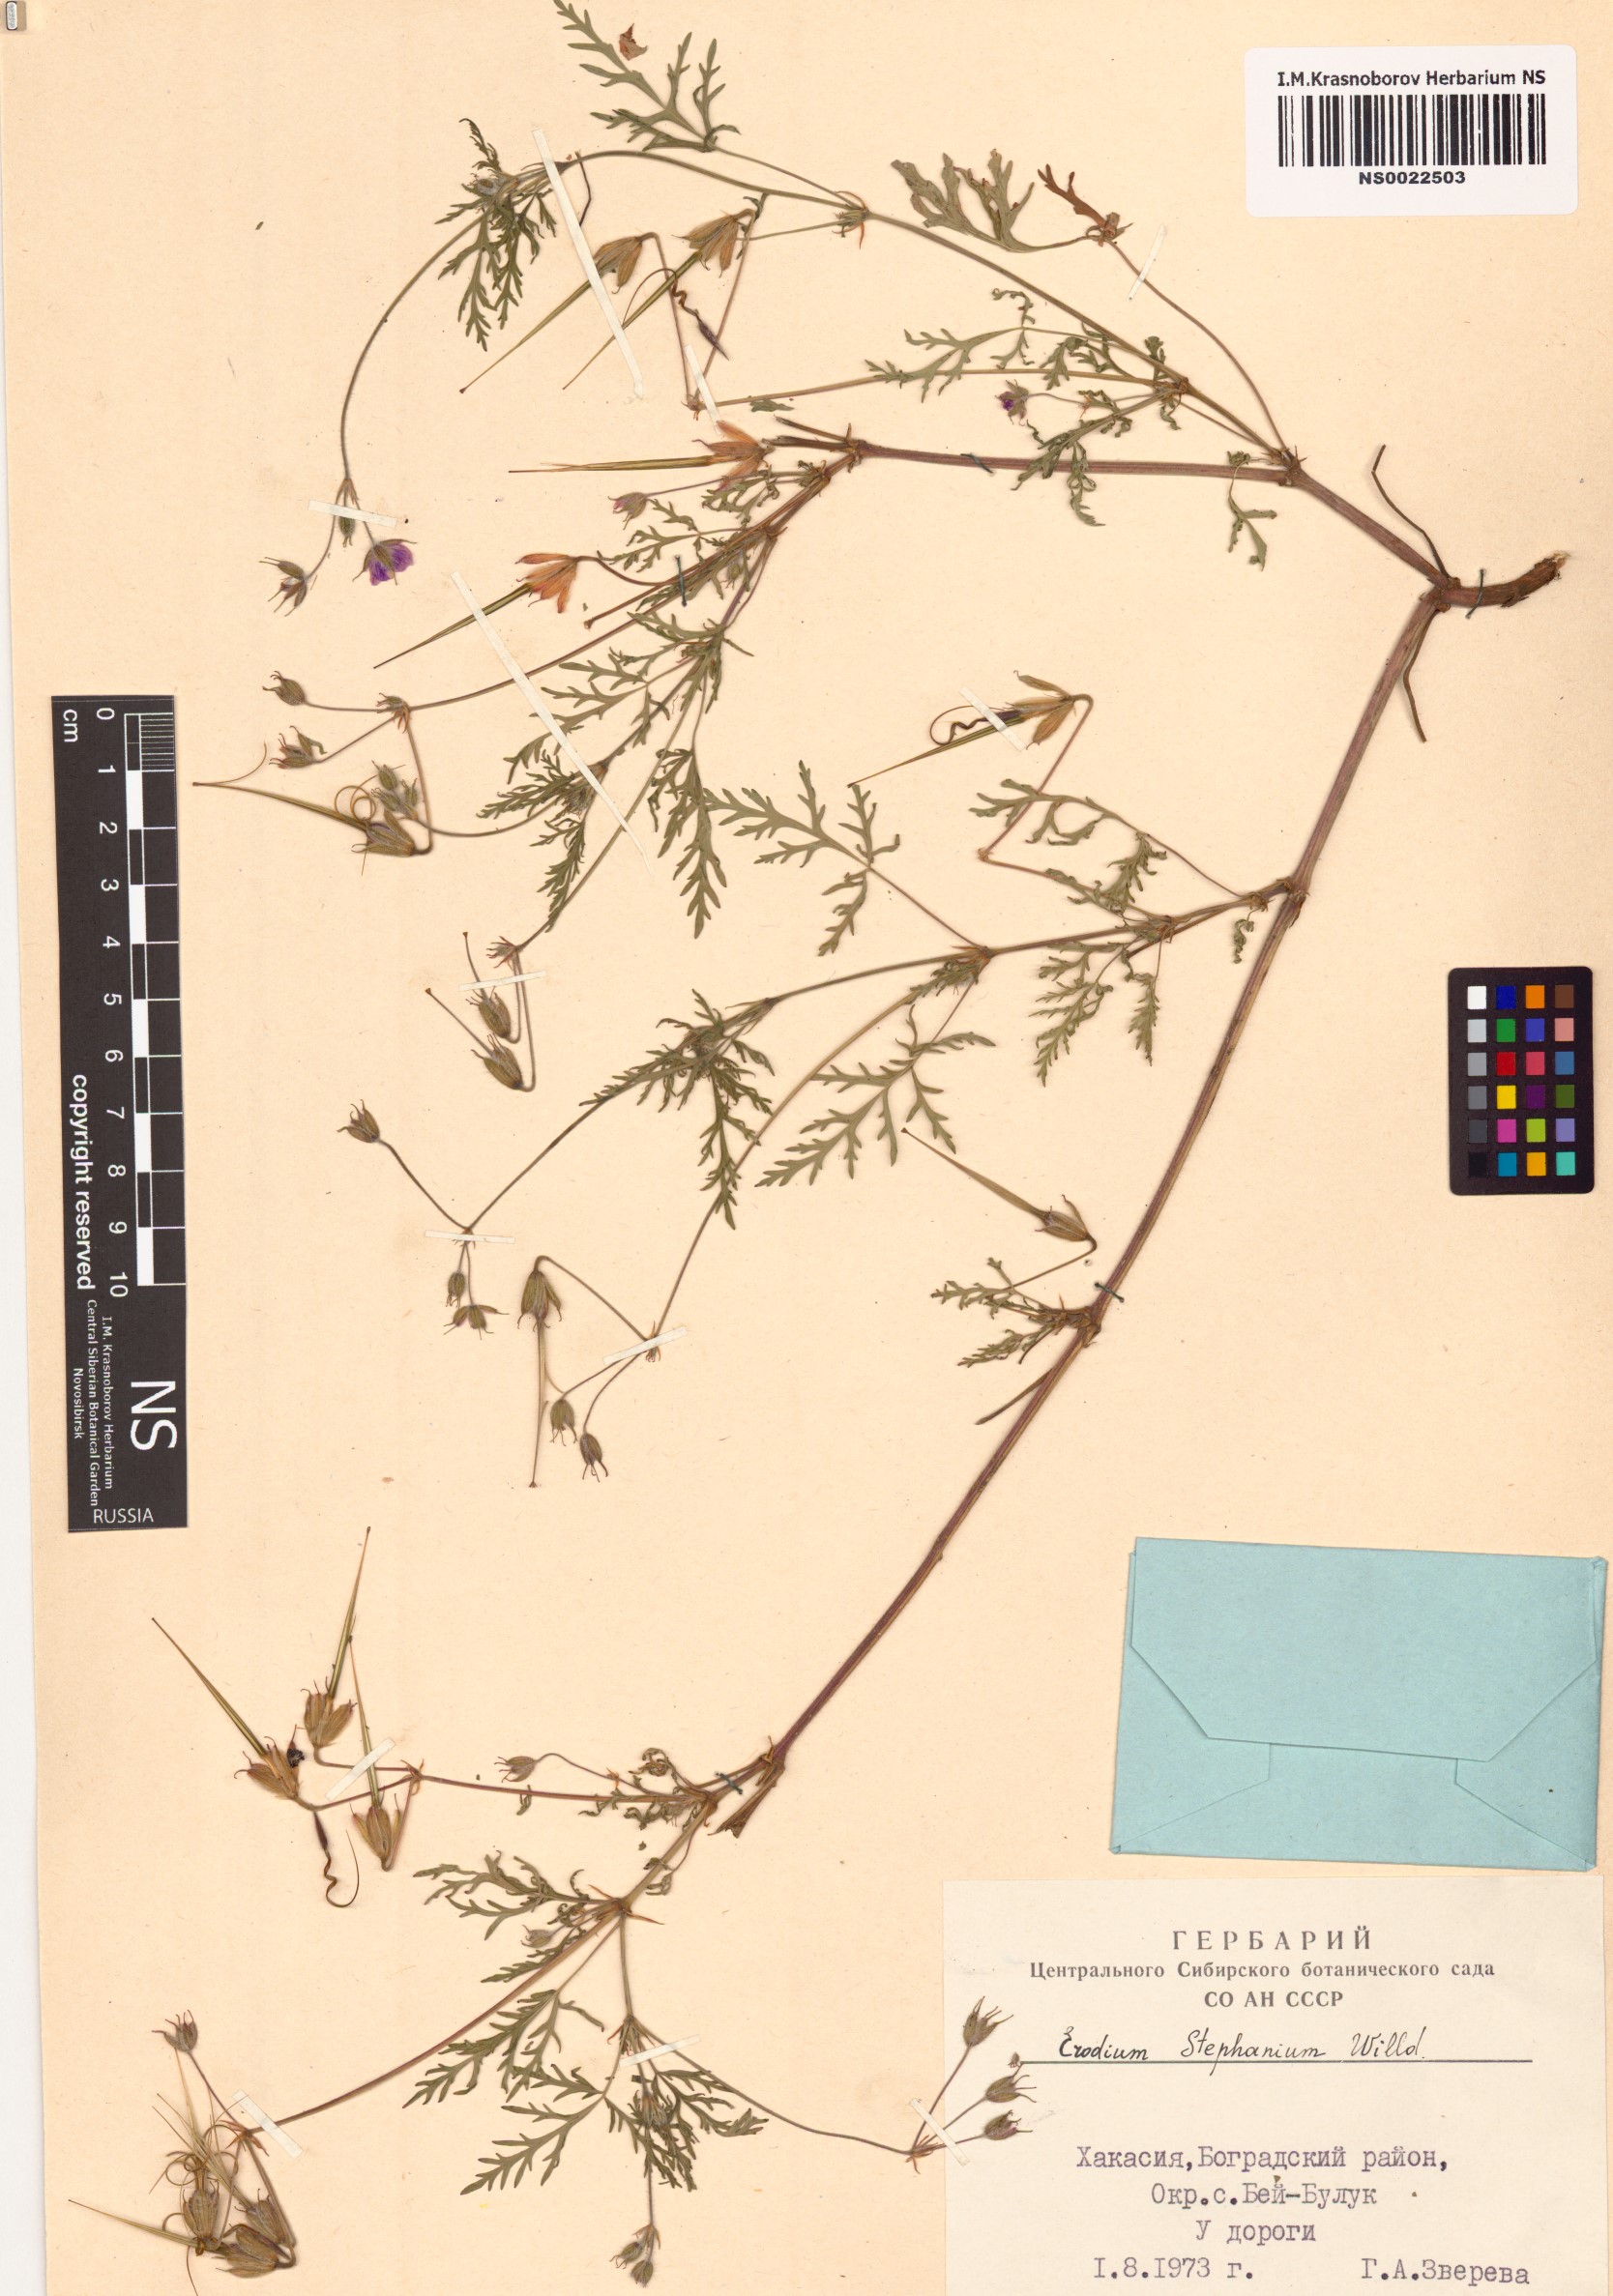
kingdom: Plantae
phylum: Tracheophyta
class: Magnoliopsida
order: Geraniales
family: Geraniaceae
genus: Erodium
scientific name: Erodium stephanianum
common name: Stephen's stork's bill
